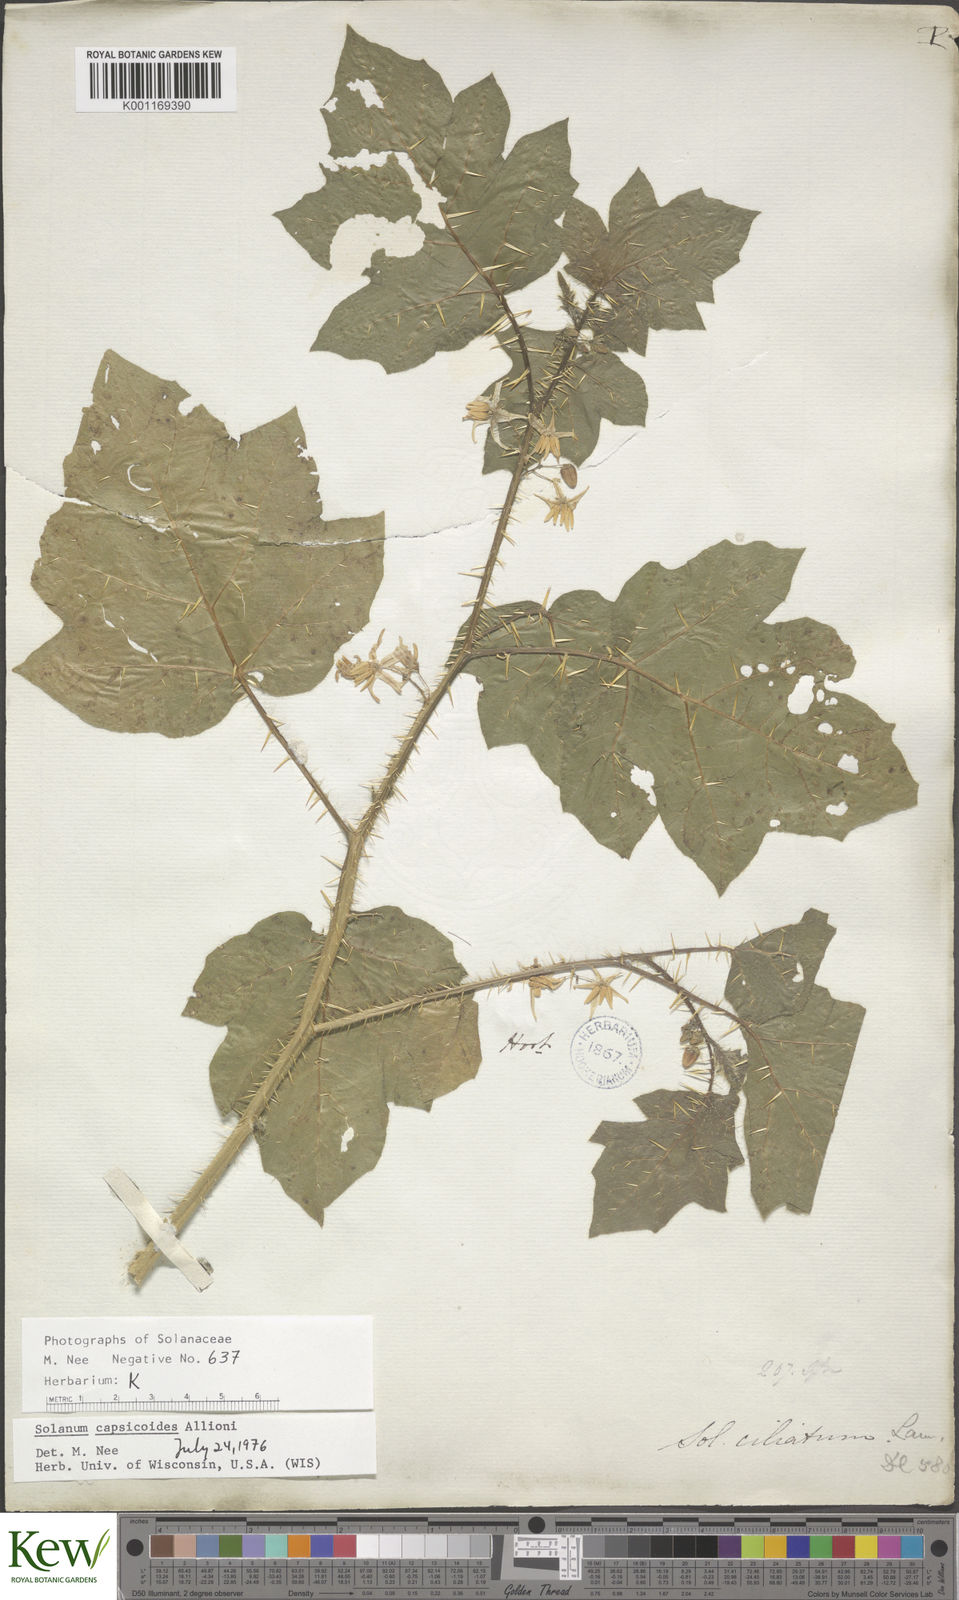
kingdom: Plantae
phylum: Tracheophyta
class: Magnoliopsida
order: Solanales
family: Solanaceae
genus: Solanum
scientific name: Solanum capsicoides
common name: Cockroach berry
